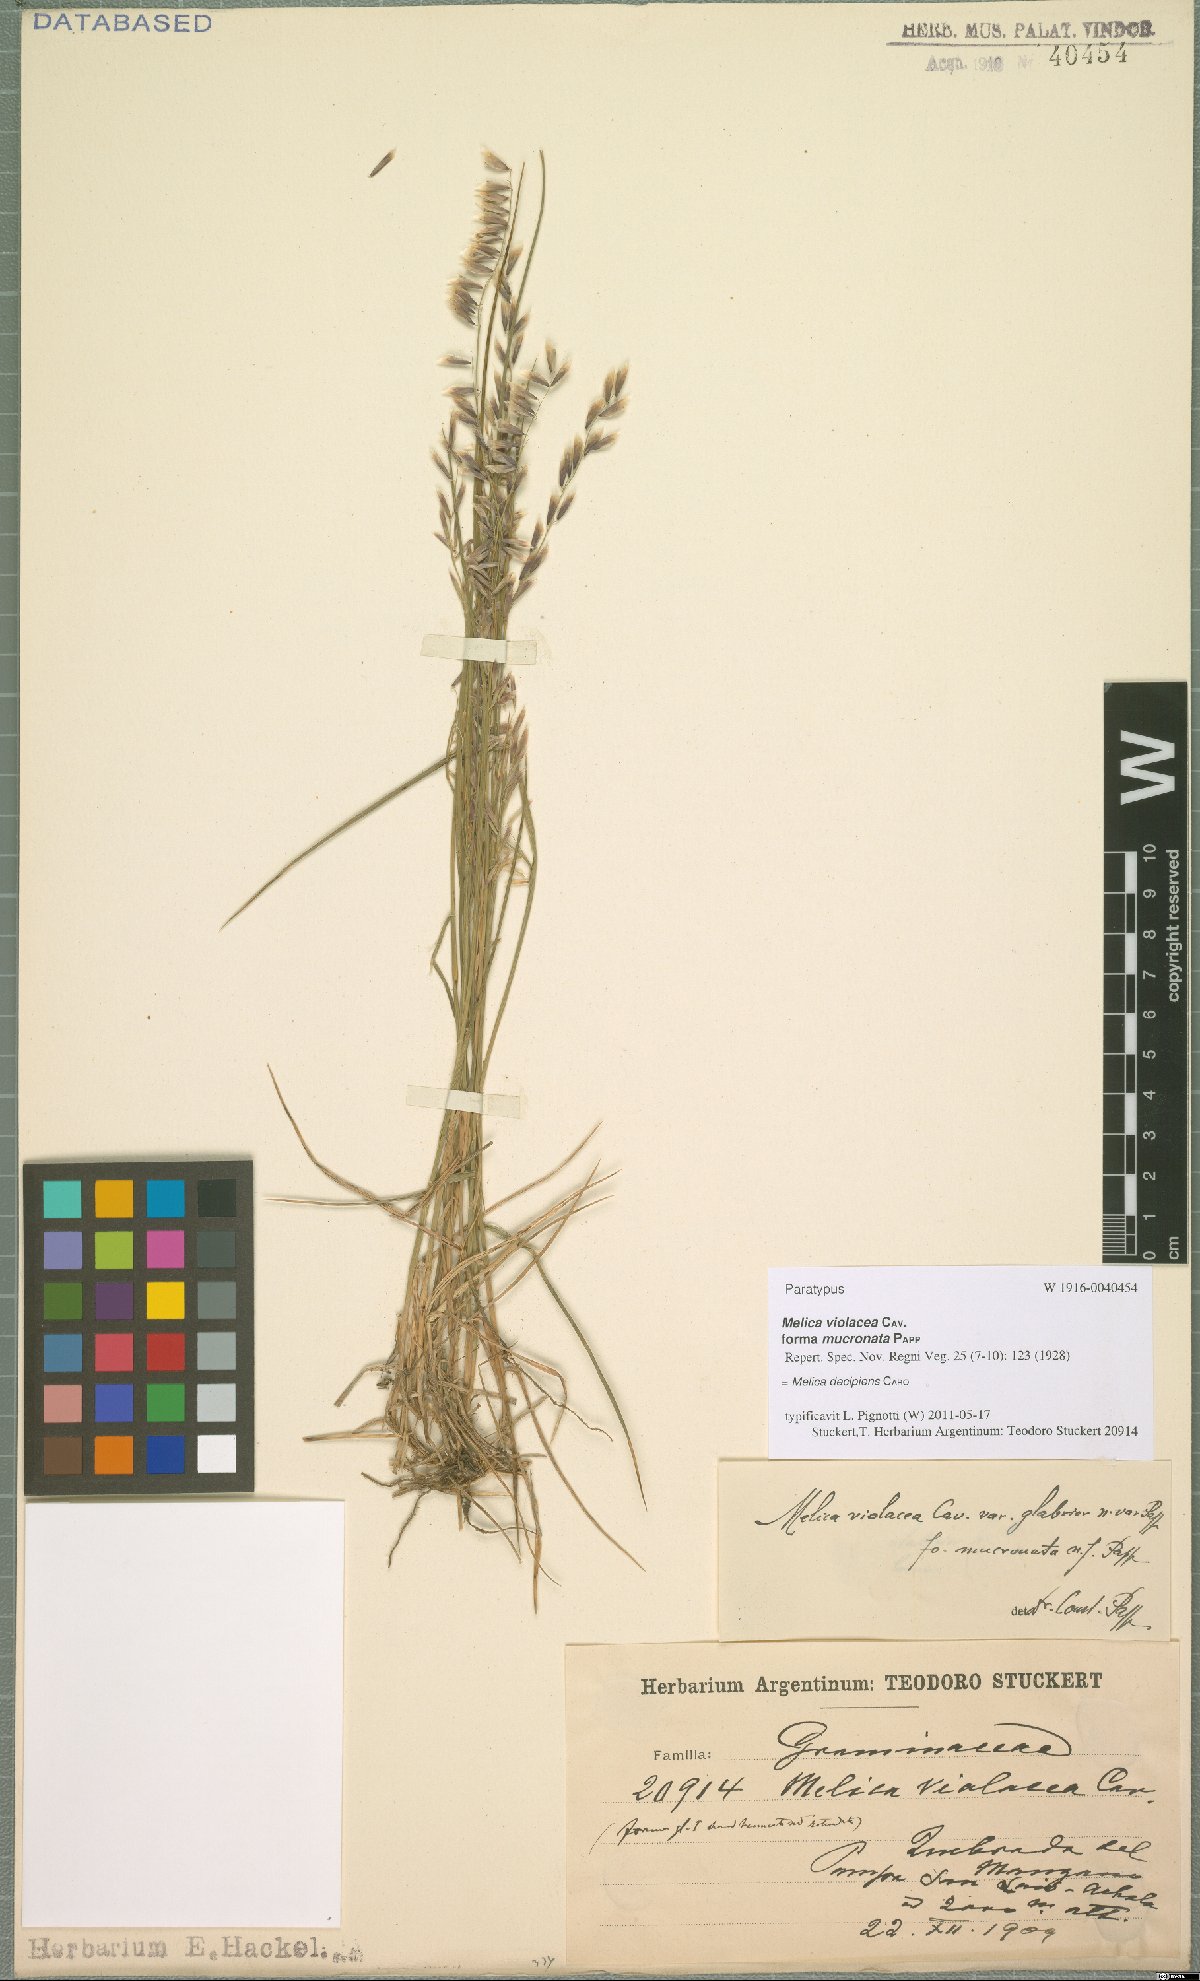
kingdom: Plantae
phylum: Tracheophyta
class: Liliopsida
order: Poales
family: Poaceae
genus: Melica
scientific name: Melica decipiens
